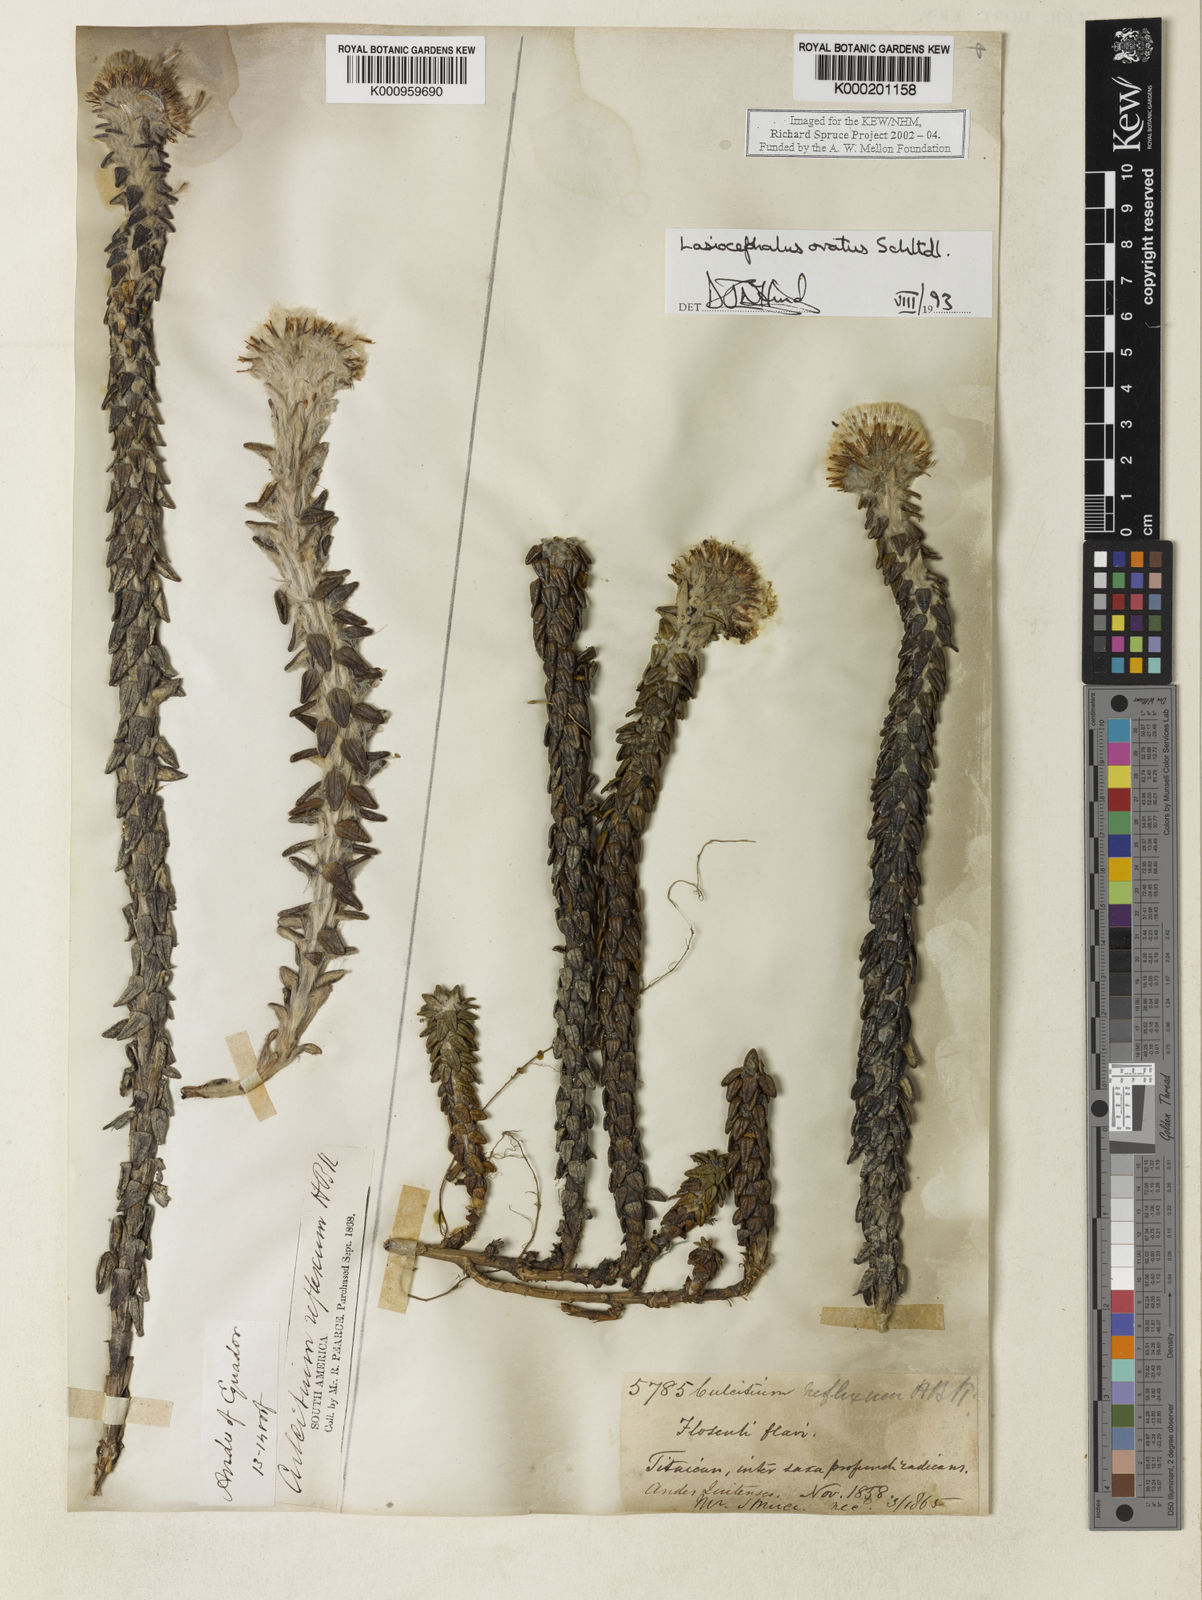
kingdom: Plantae
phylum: Tracheophyta
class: Magnoliopsida
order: Asterales
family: Asteraceae
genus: Lasiocephalus
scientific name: Lasiocephalus ovatus
